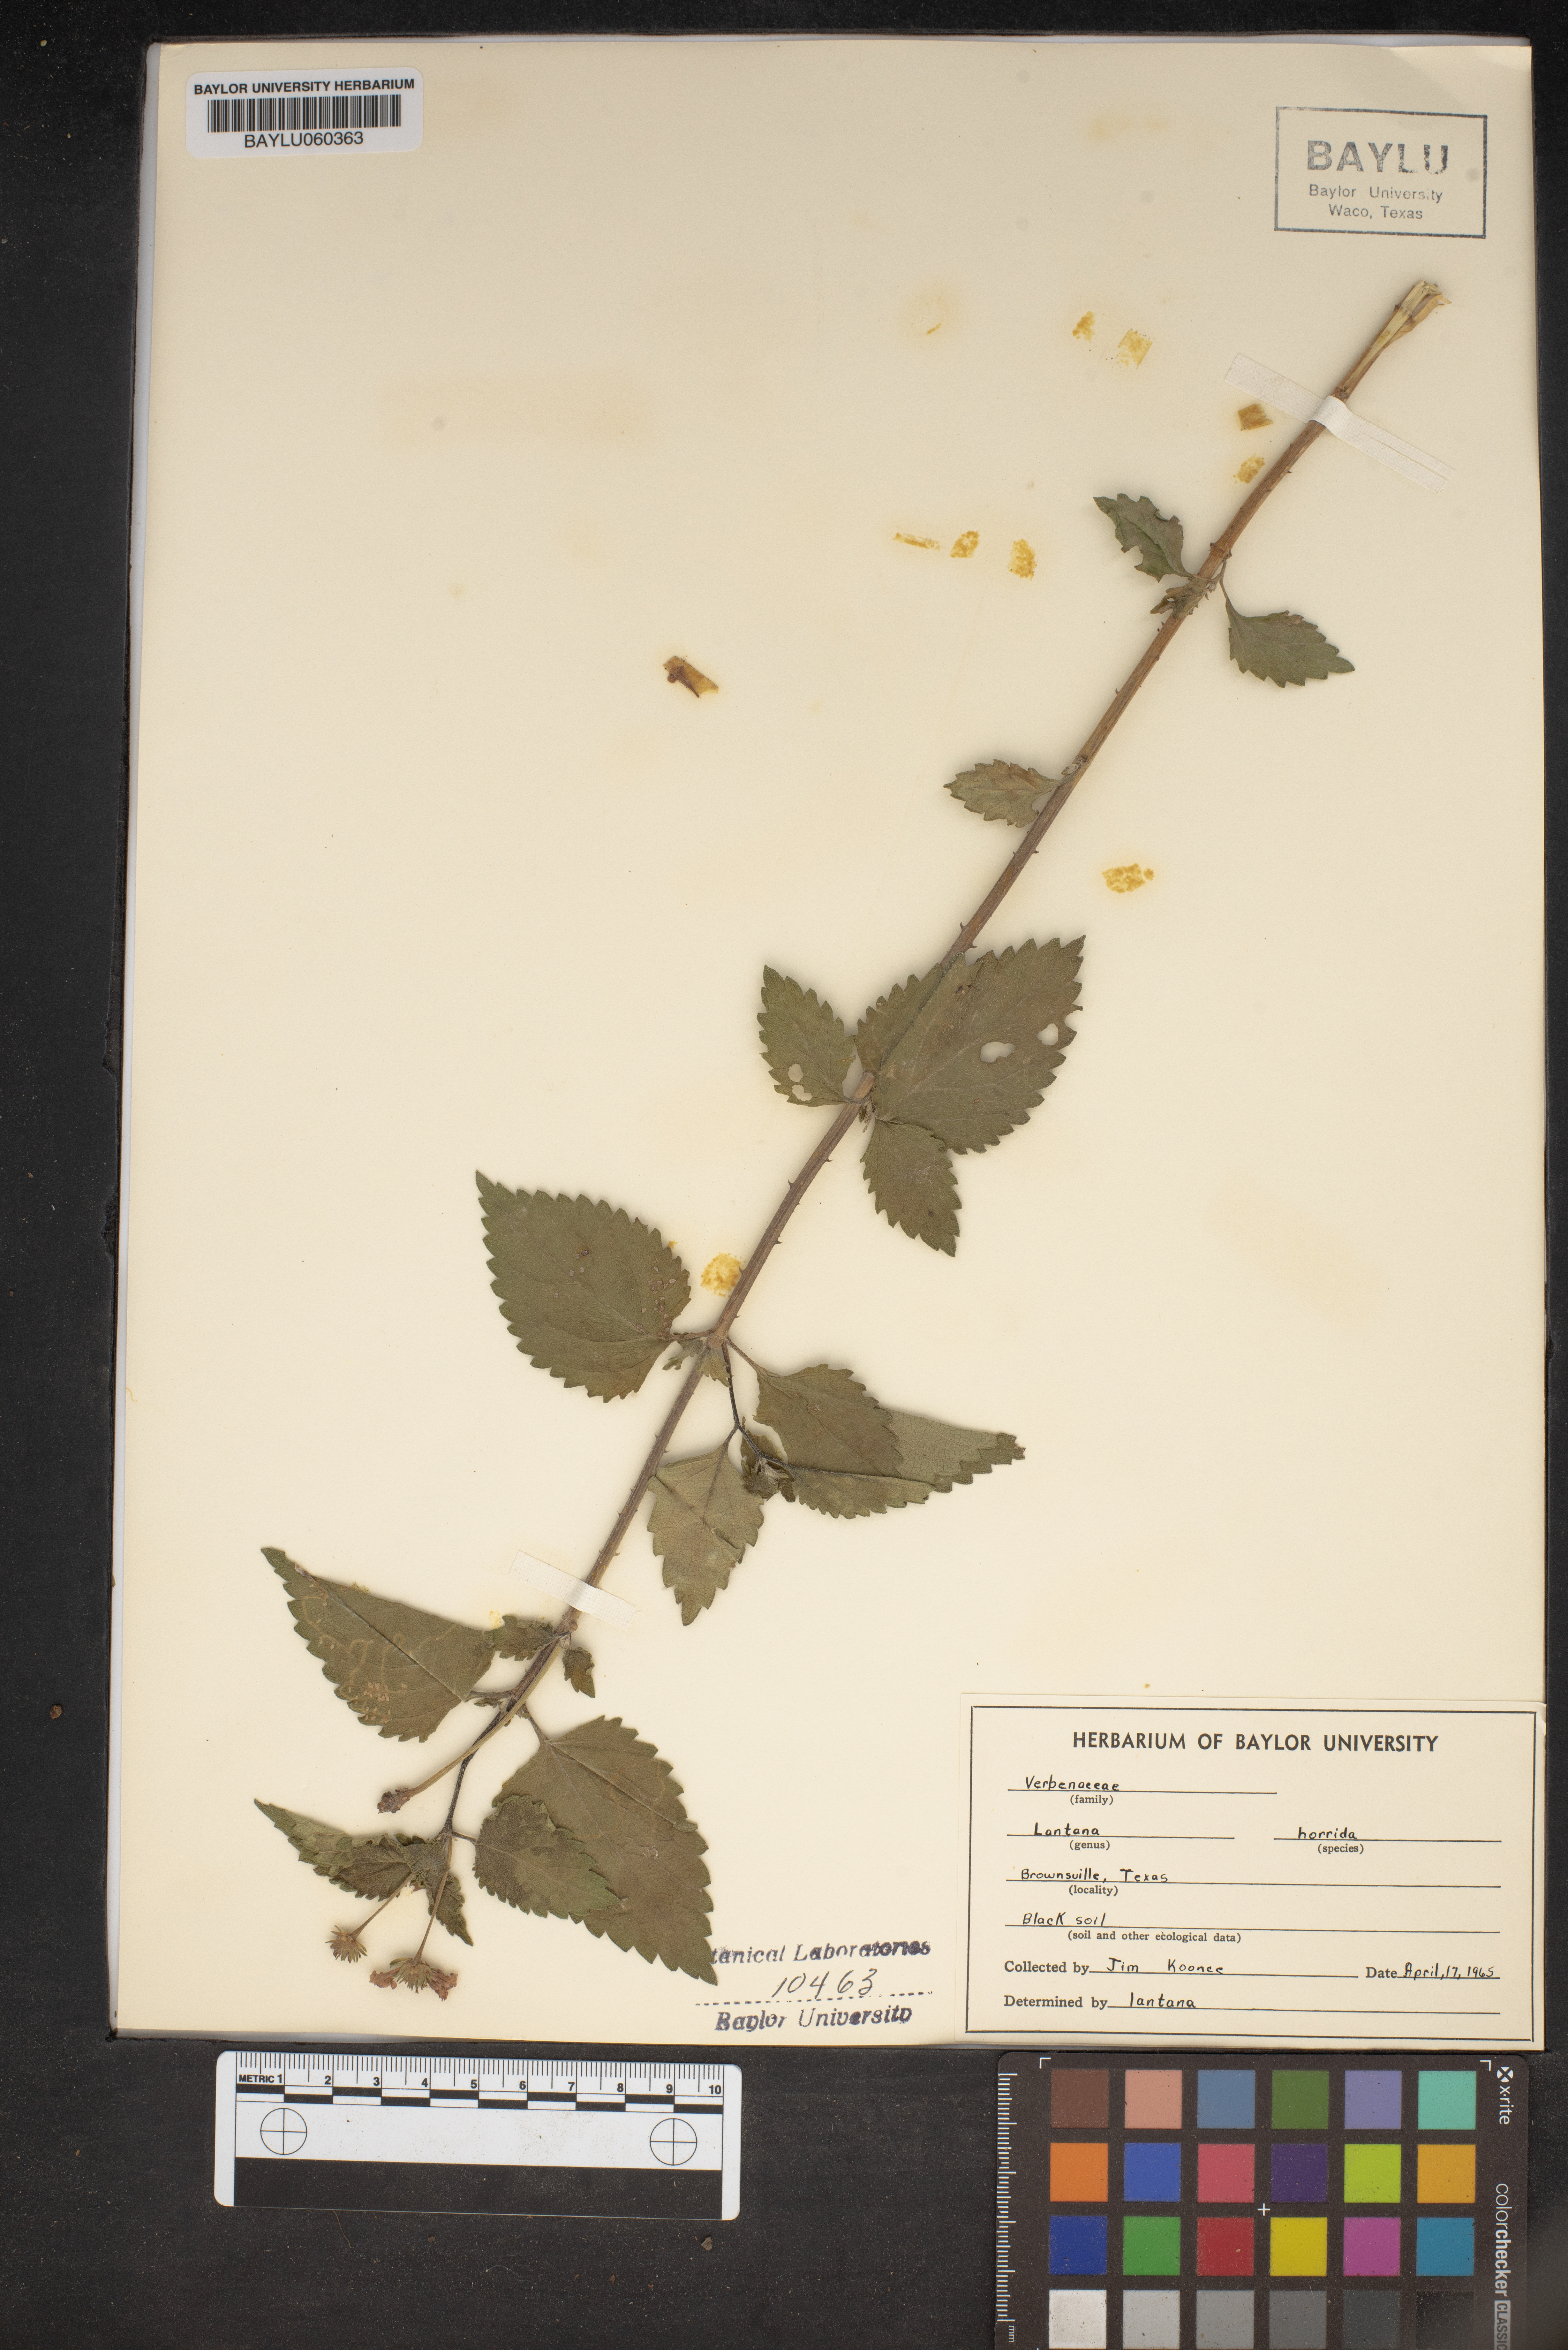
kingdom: Plantae
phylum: Tracheophyta
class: Magnoliopsida
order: Lamiales
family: Verbenaceae
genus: Lantana
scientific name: Lantana horrida
